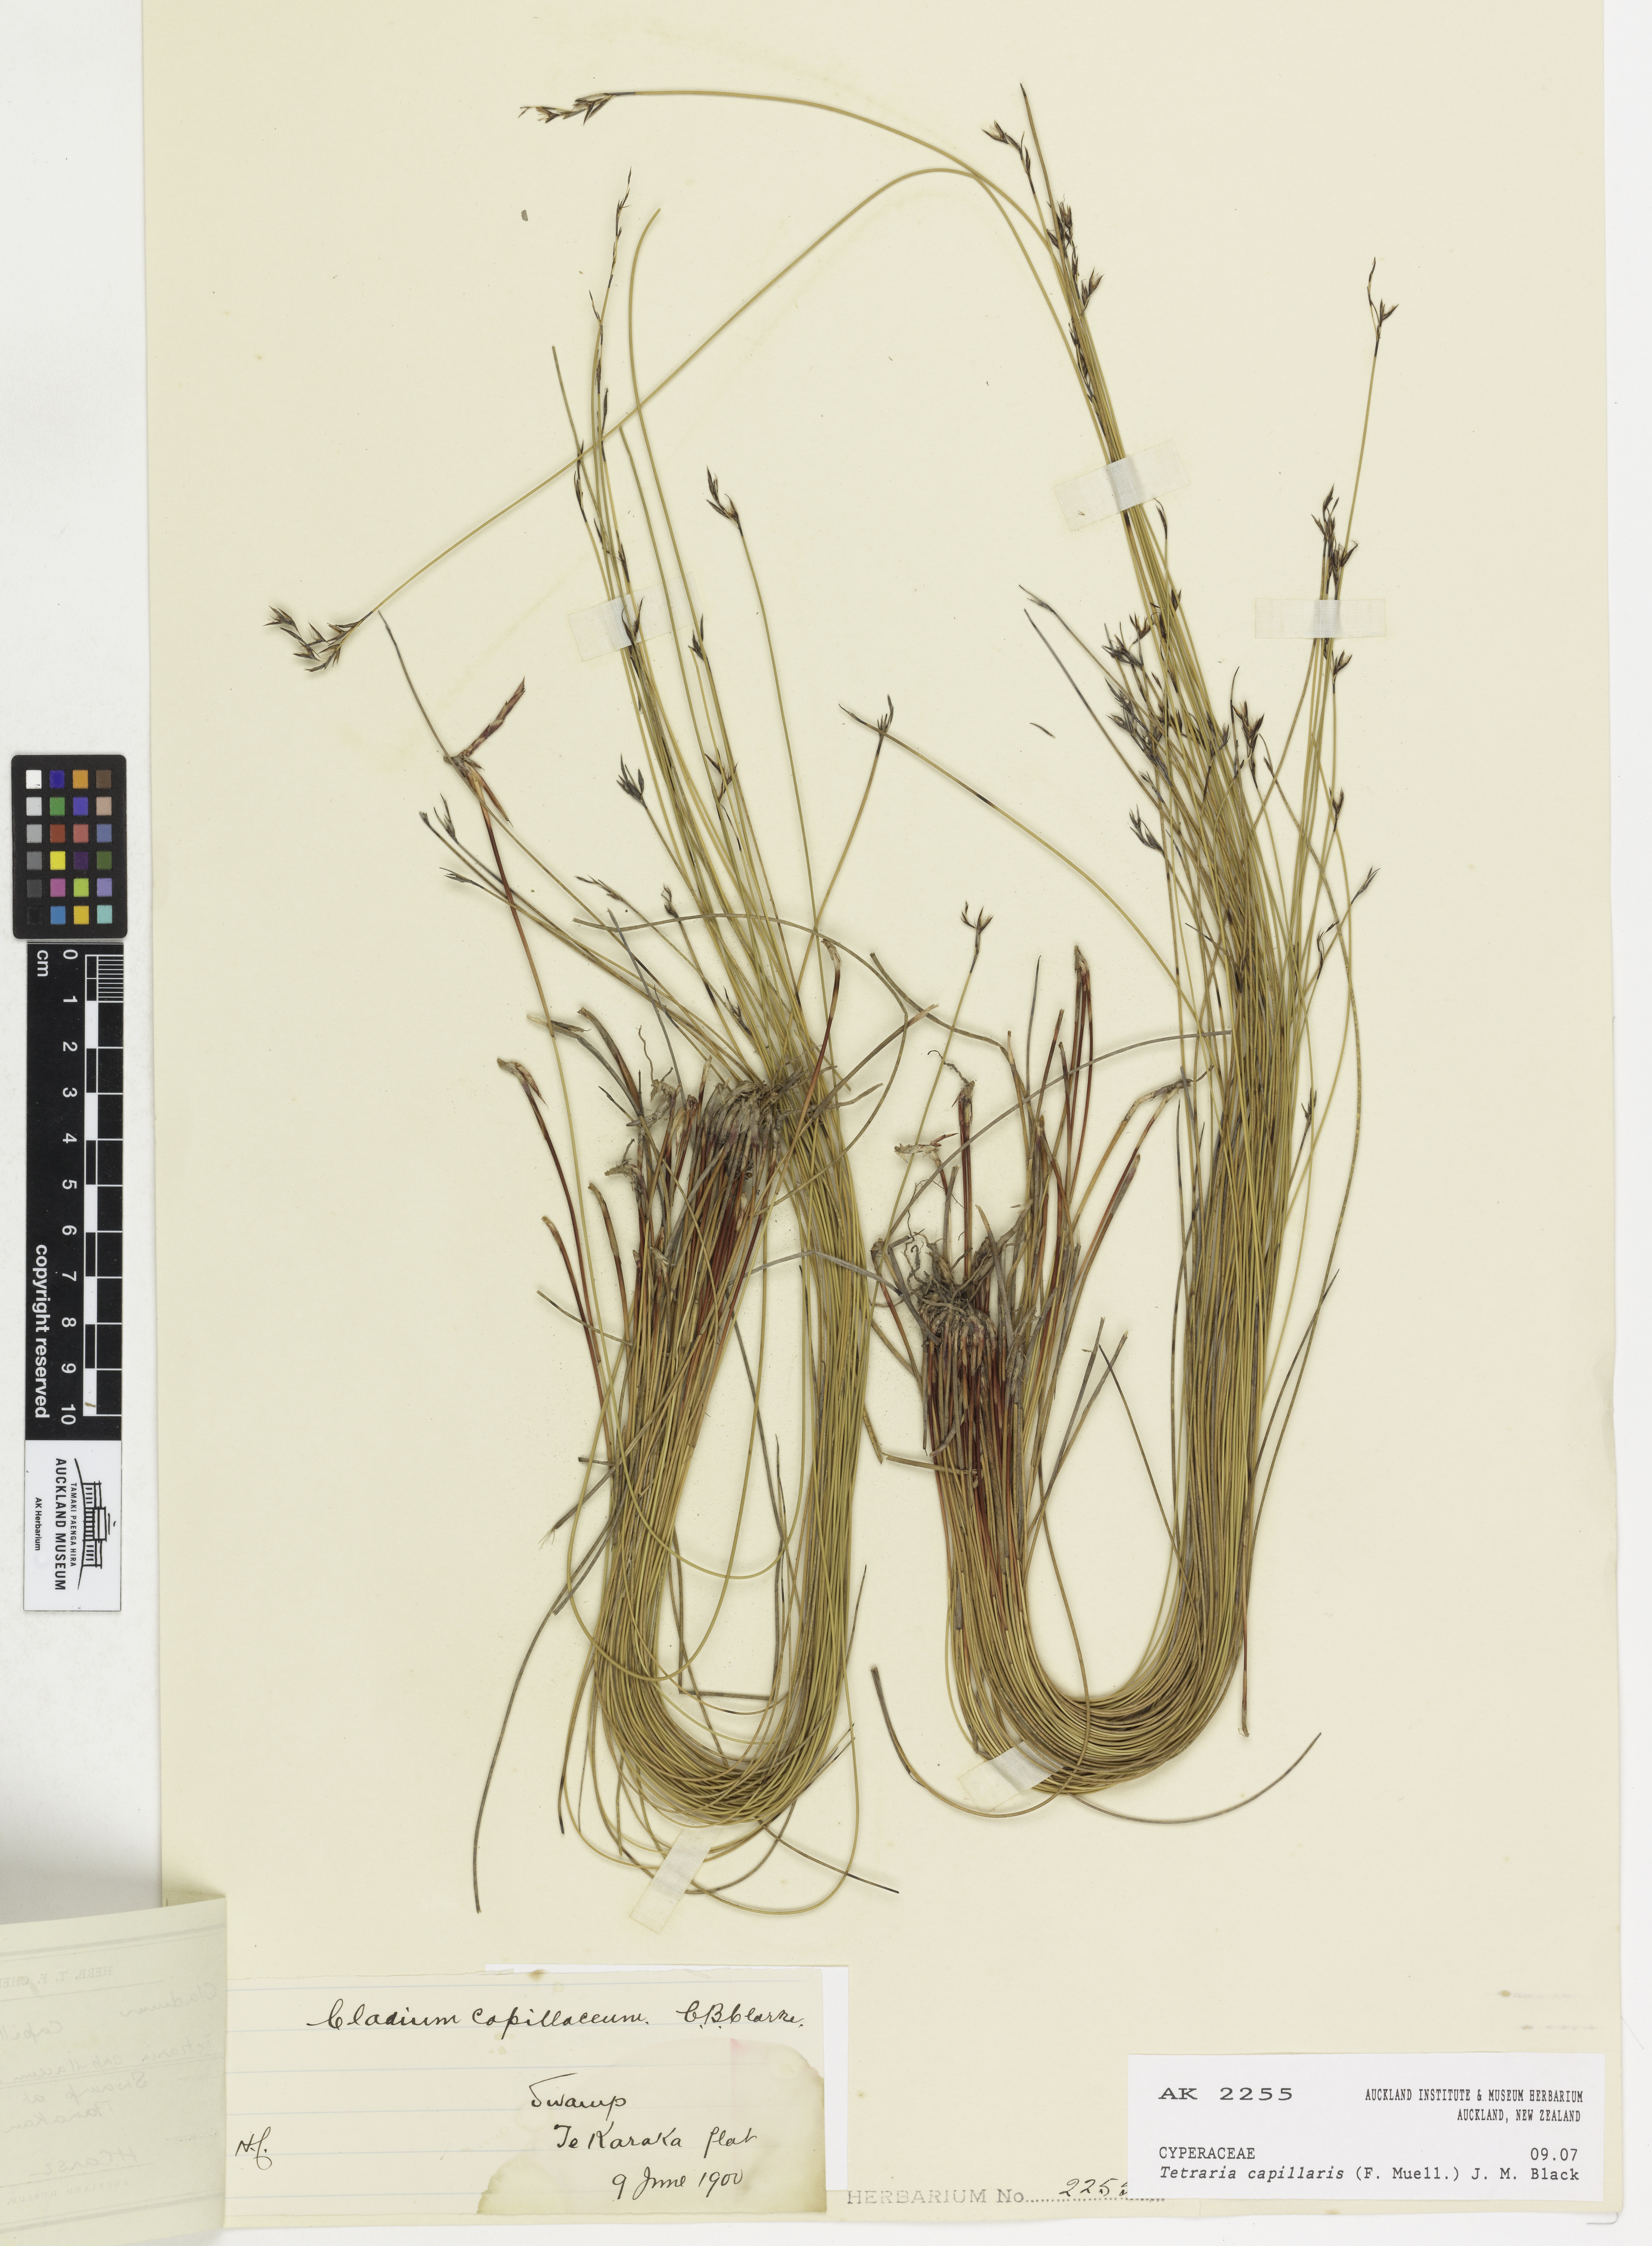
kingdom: Plantae
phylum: Tracheophyta
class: Liliopsida
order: Poales
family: Cyperaceae
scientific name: Cyperaceae
